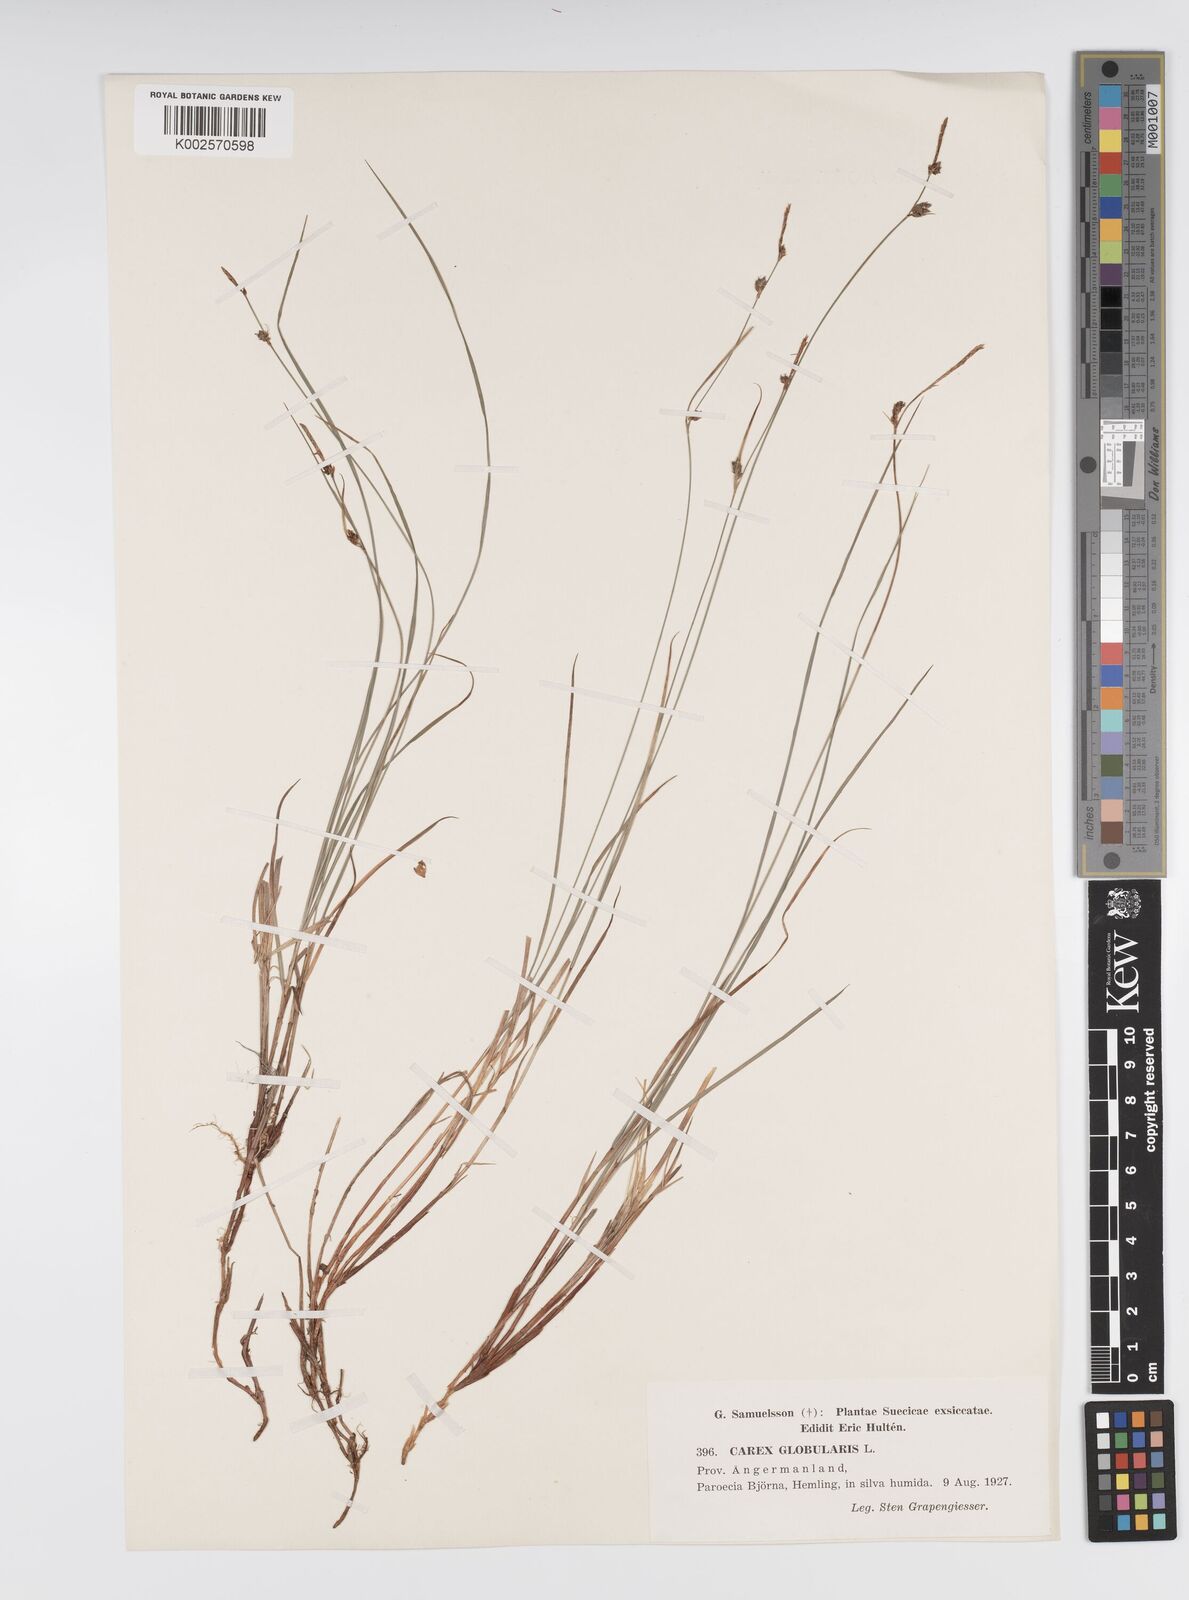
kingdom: Plantae
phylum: Tracheophyta
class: Liliopsida
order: Poales
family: Cyperaceae
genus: Carex
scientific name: Carex globularis
